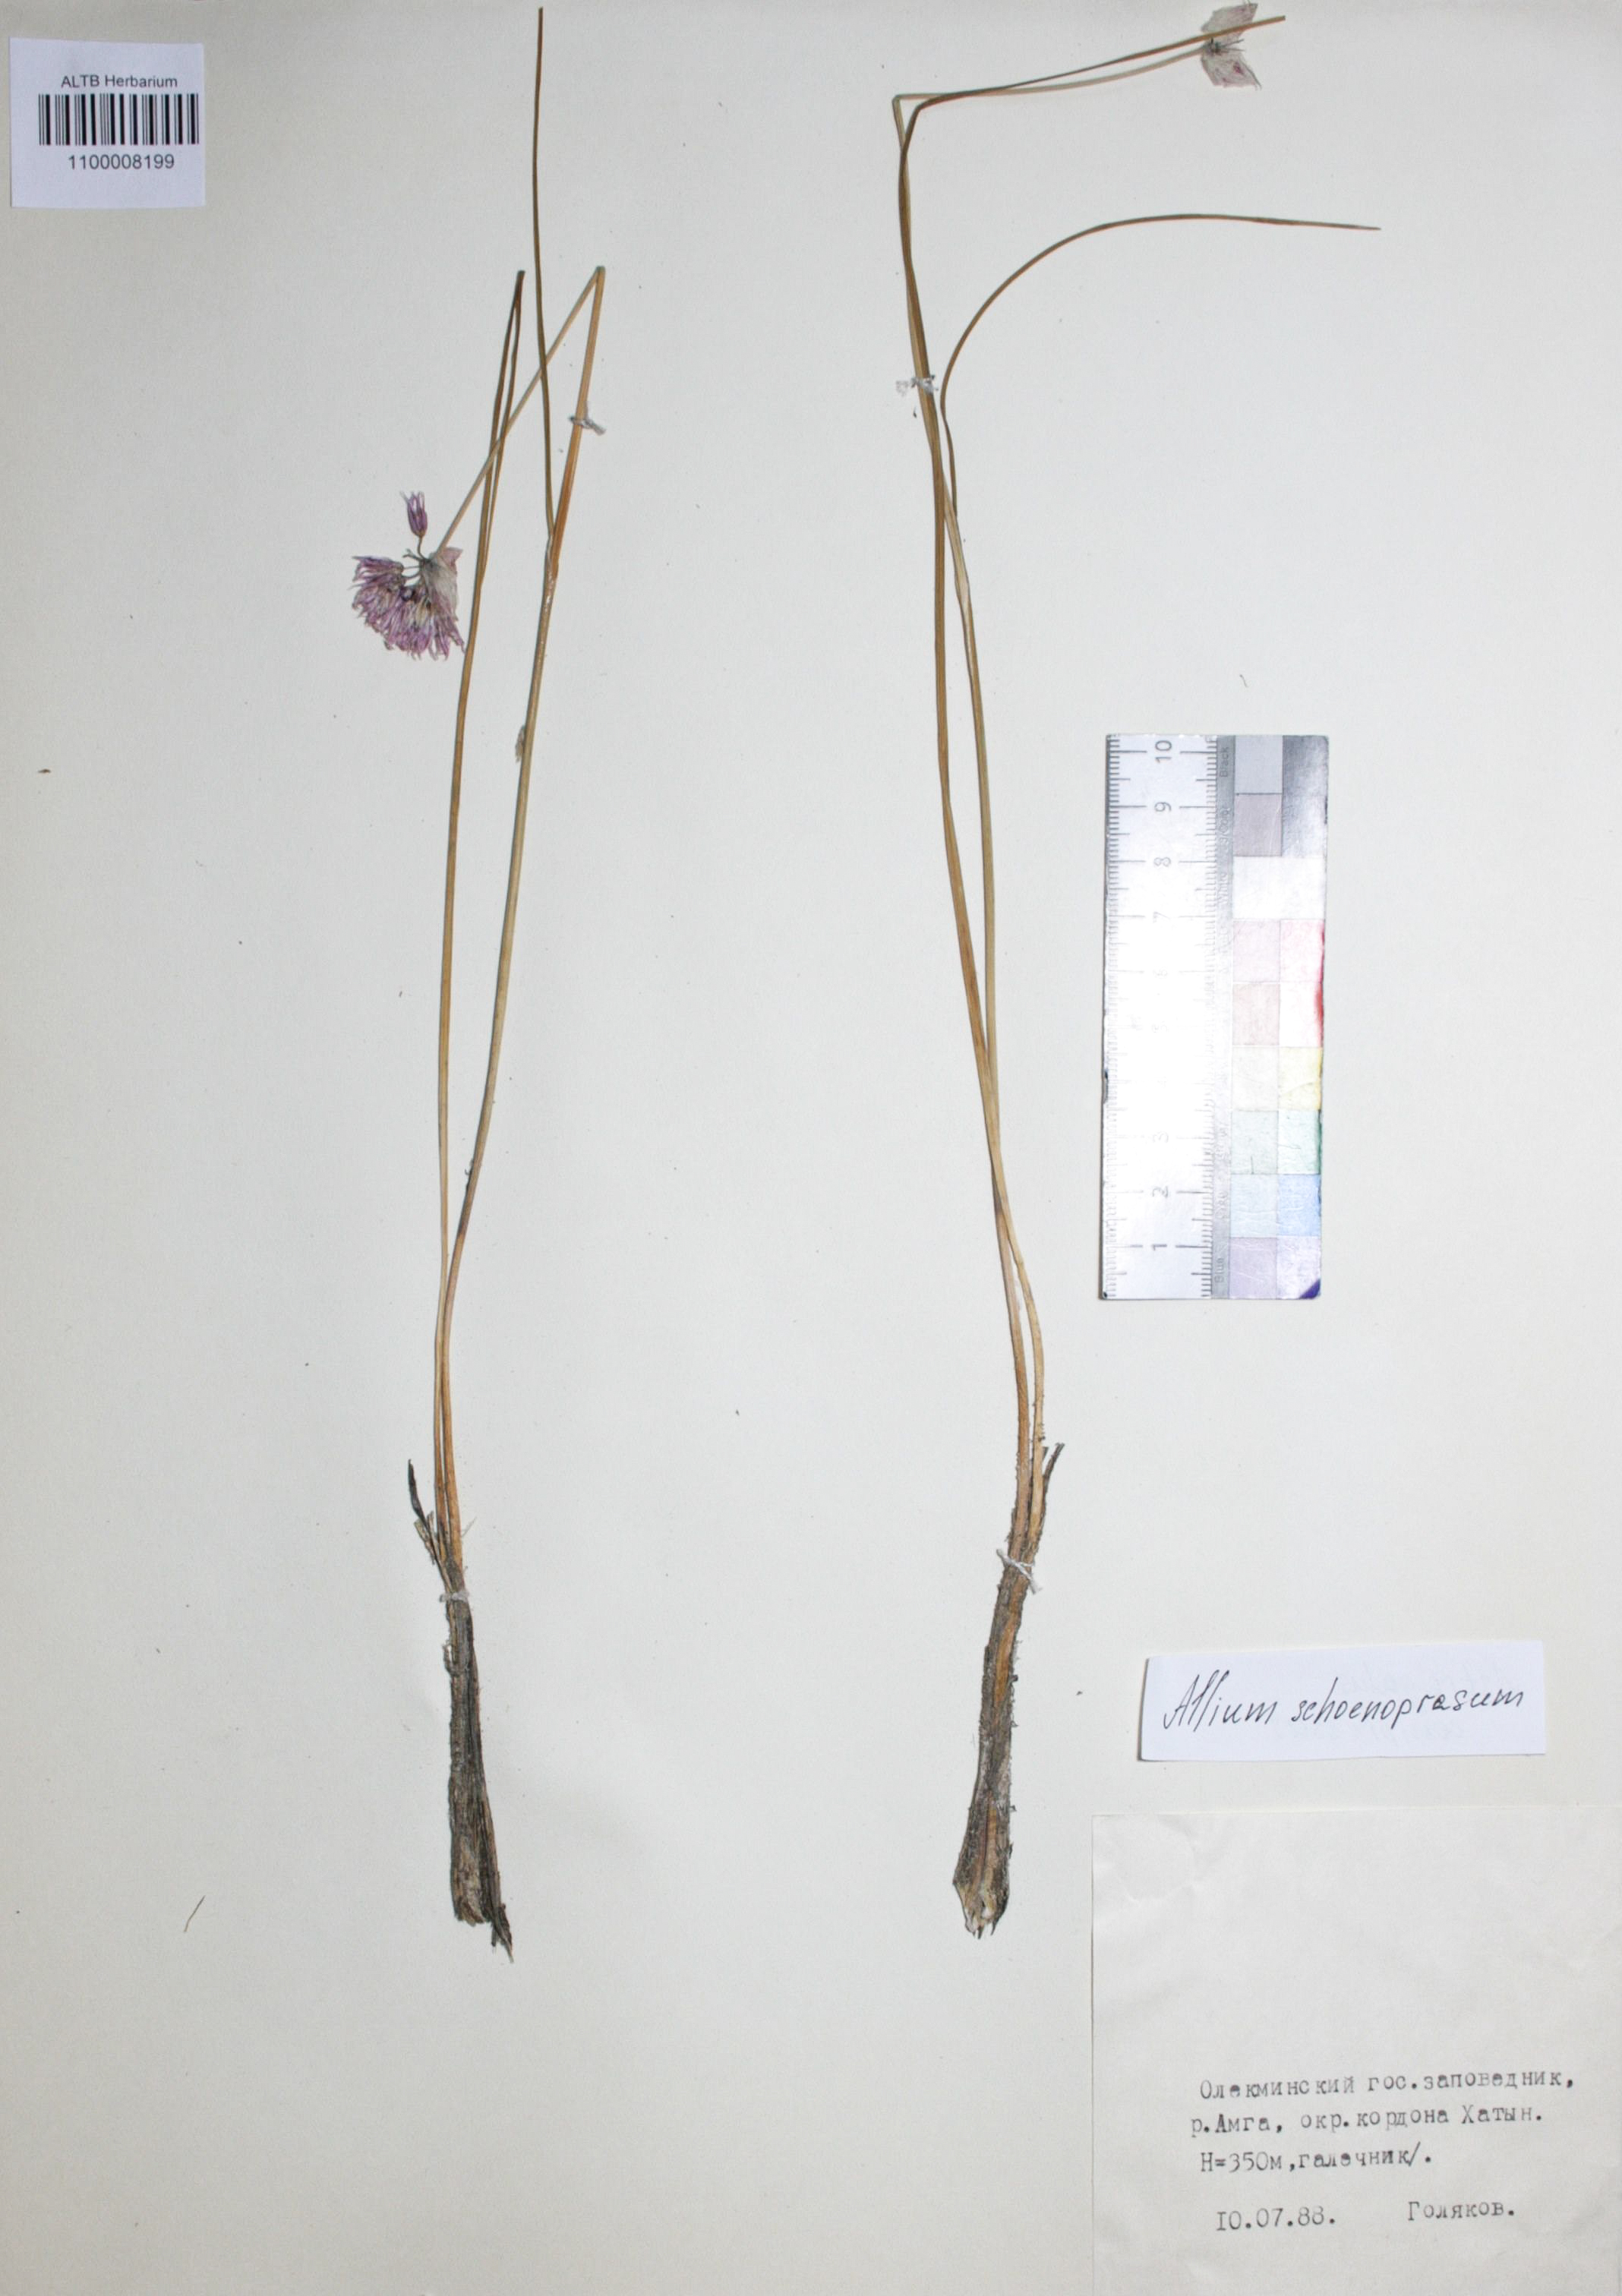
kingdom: Plantae
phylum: Tracheophyta
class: Liliopsida
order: Asparagales
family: Amaryllidaceae
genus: Allium
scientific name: Allium schoenoprasum
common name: Chives
